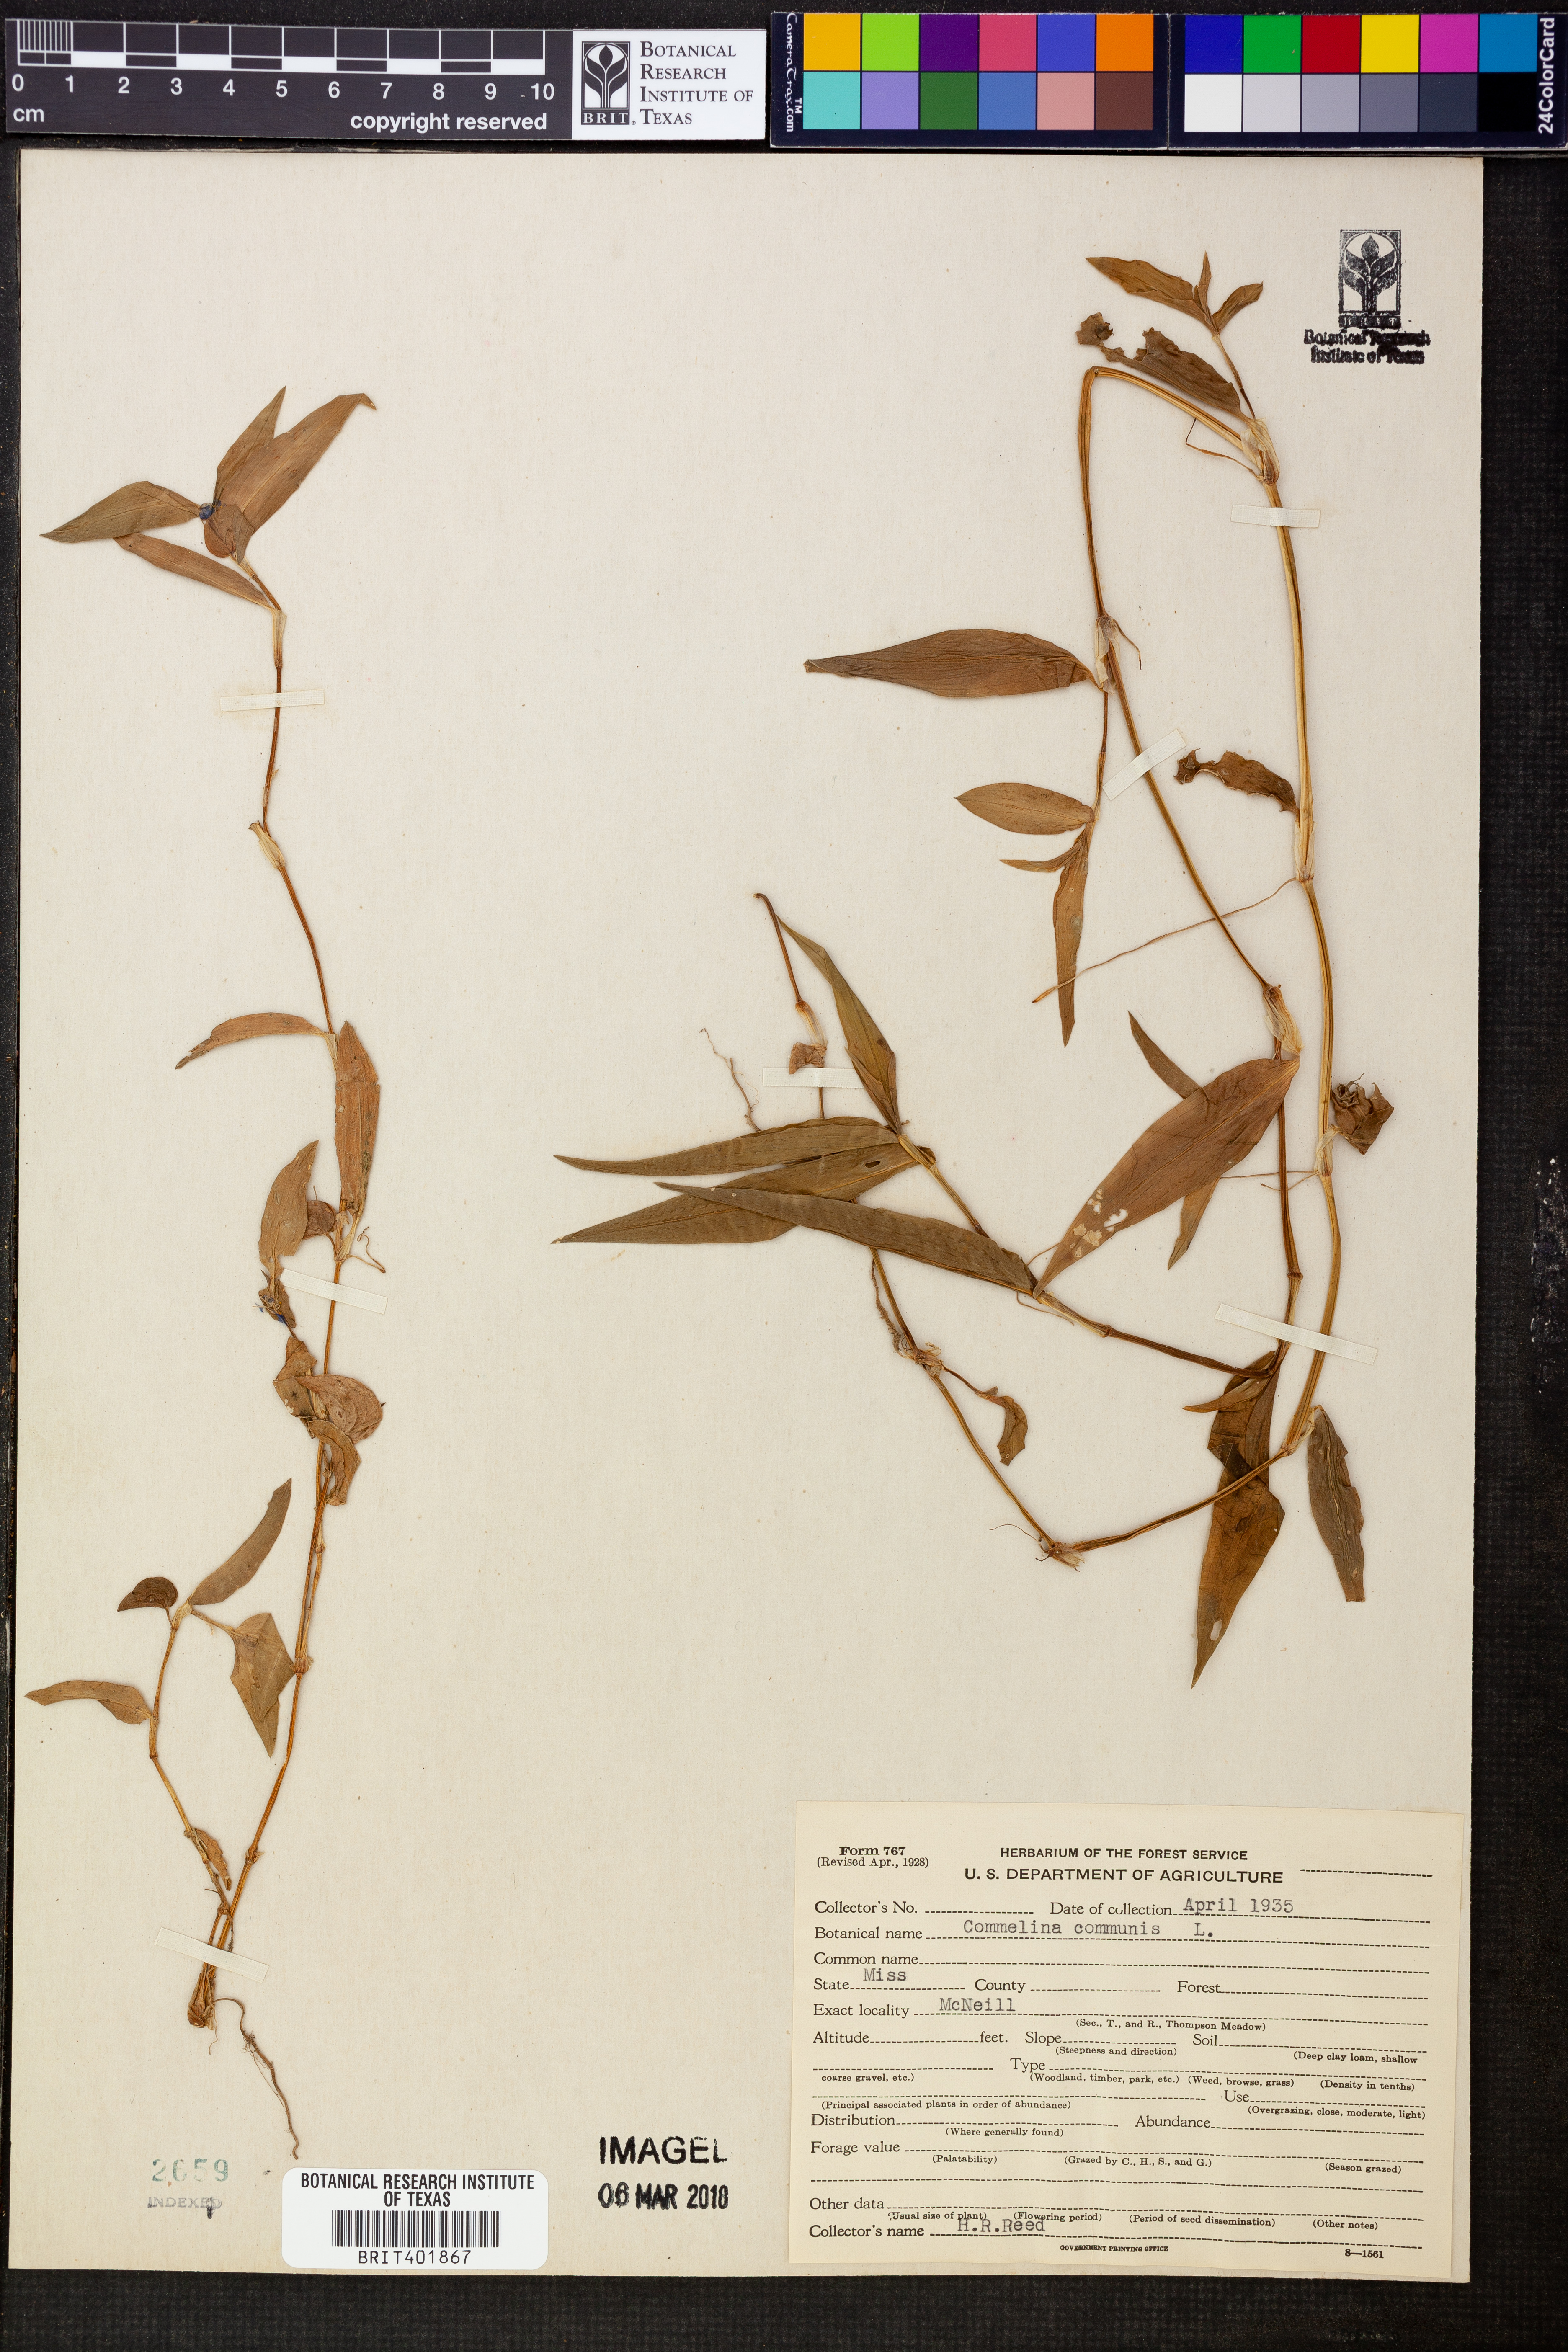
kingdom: Plantae
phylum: Tracheophyta
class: Liliopsida
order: Commelinales
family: Commelinaceae
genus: Commelina
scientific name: Commelina communis
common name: Asiatic dayflower
